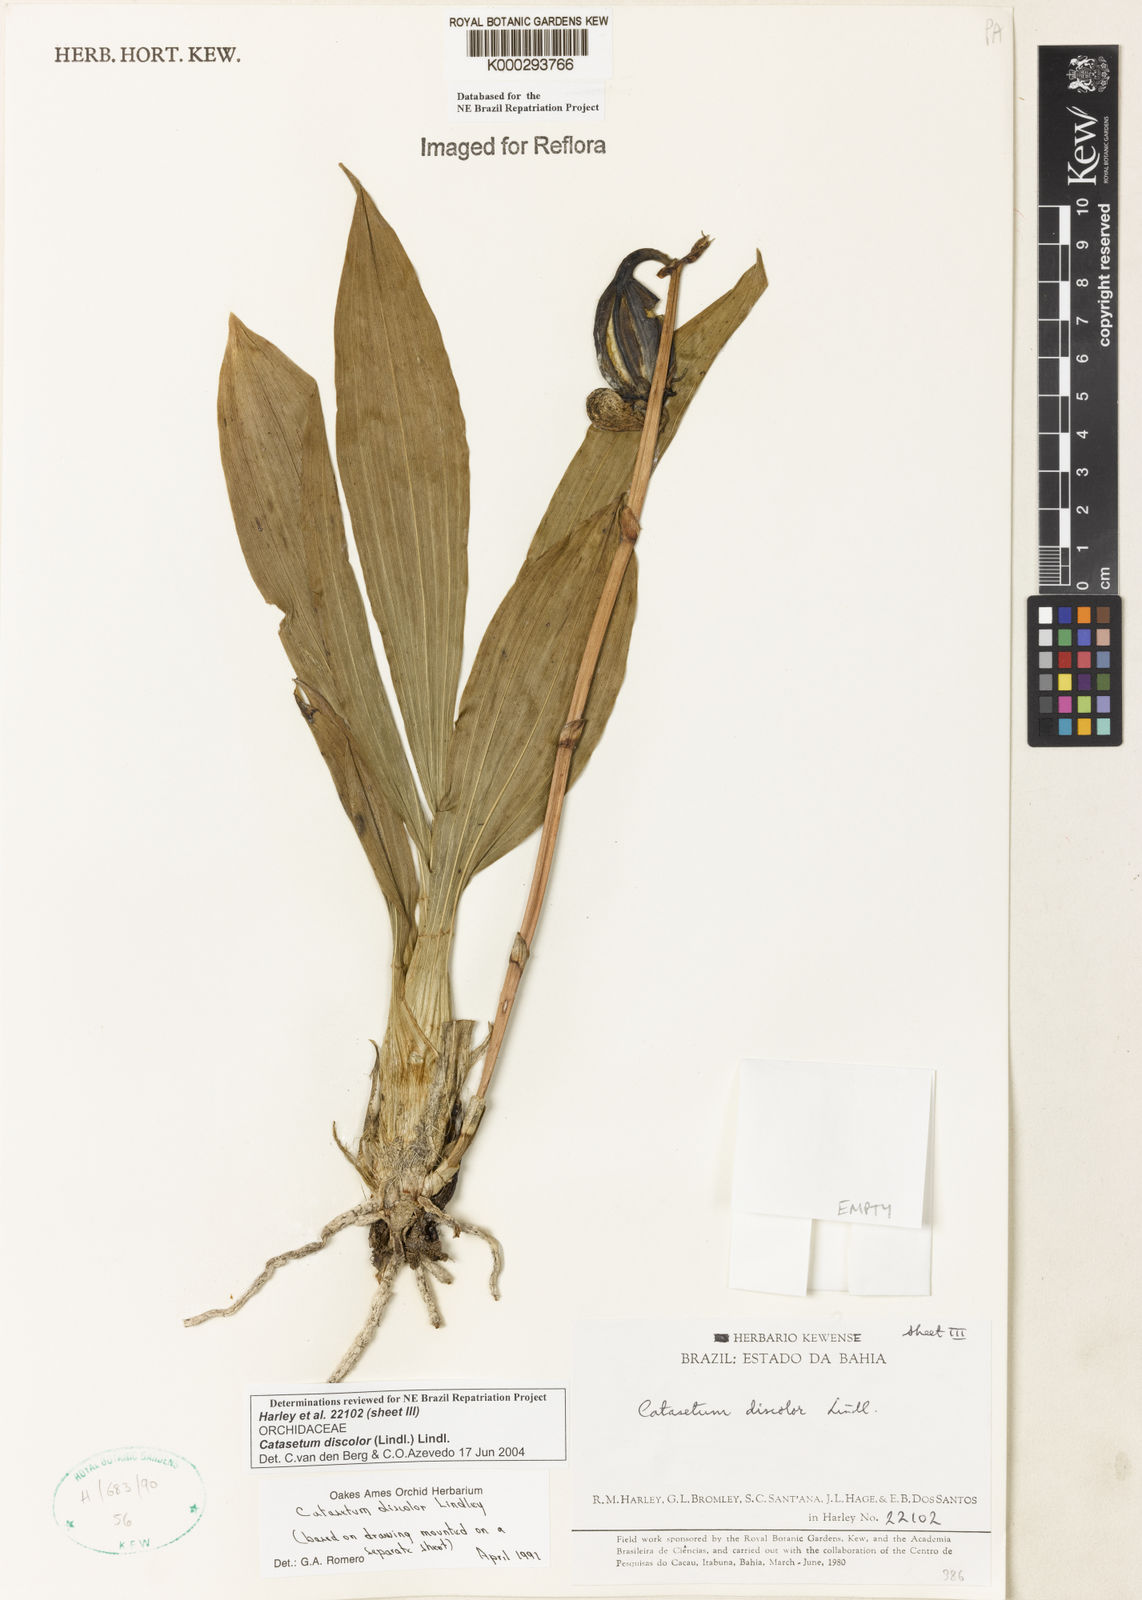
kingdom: Plantae
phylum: Tracheophyta
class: Liliopsida
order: Asparagales
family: Orchidaceae
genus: Catasetum
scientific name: Catasetum discolor
